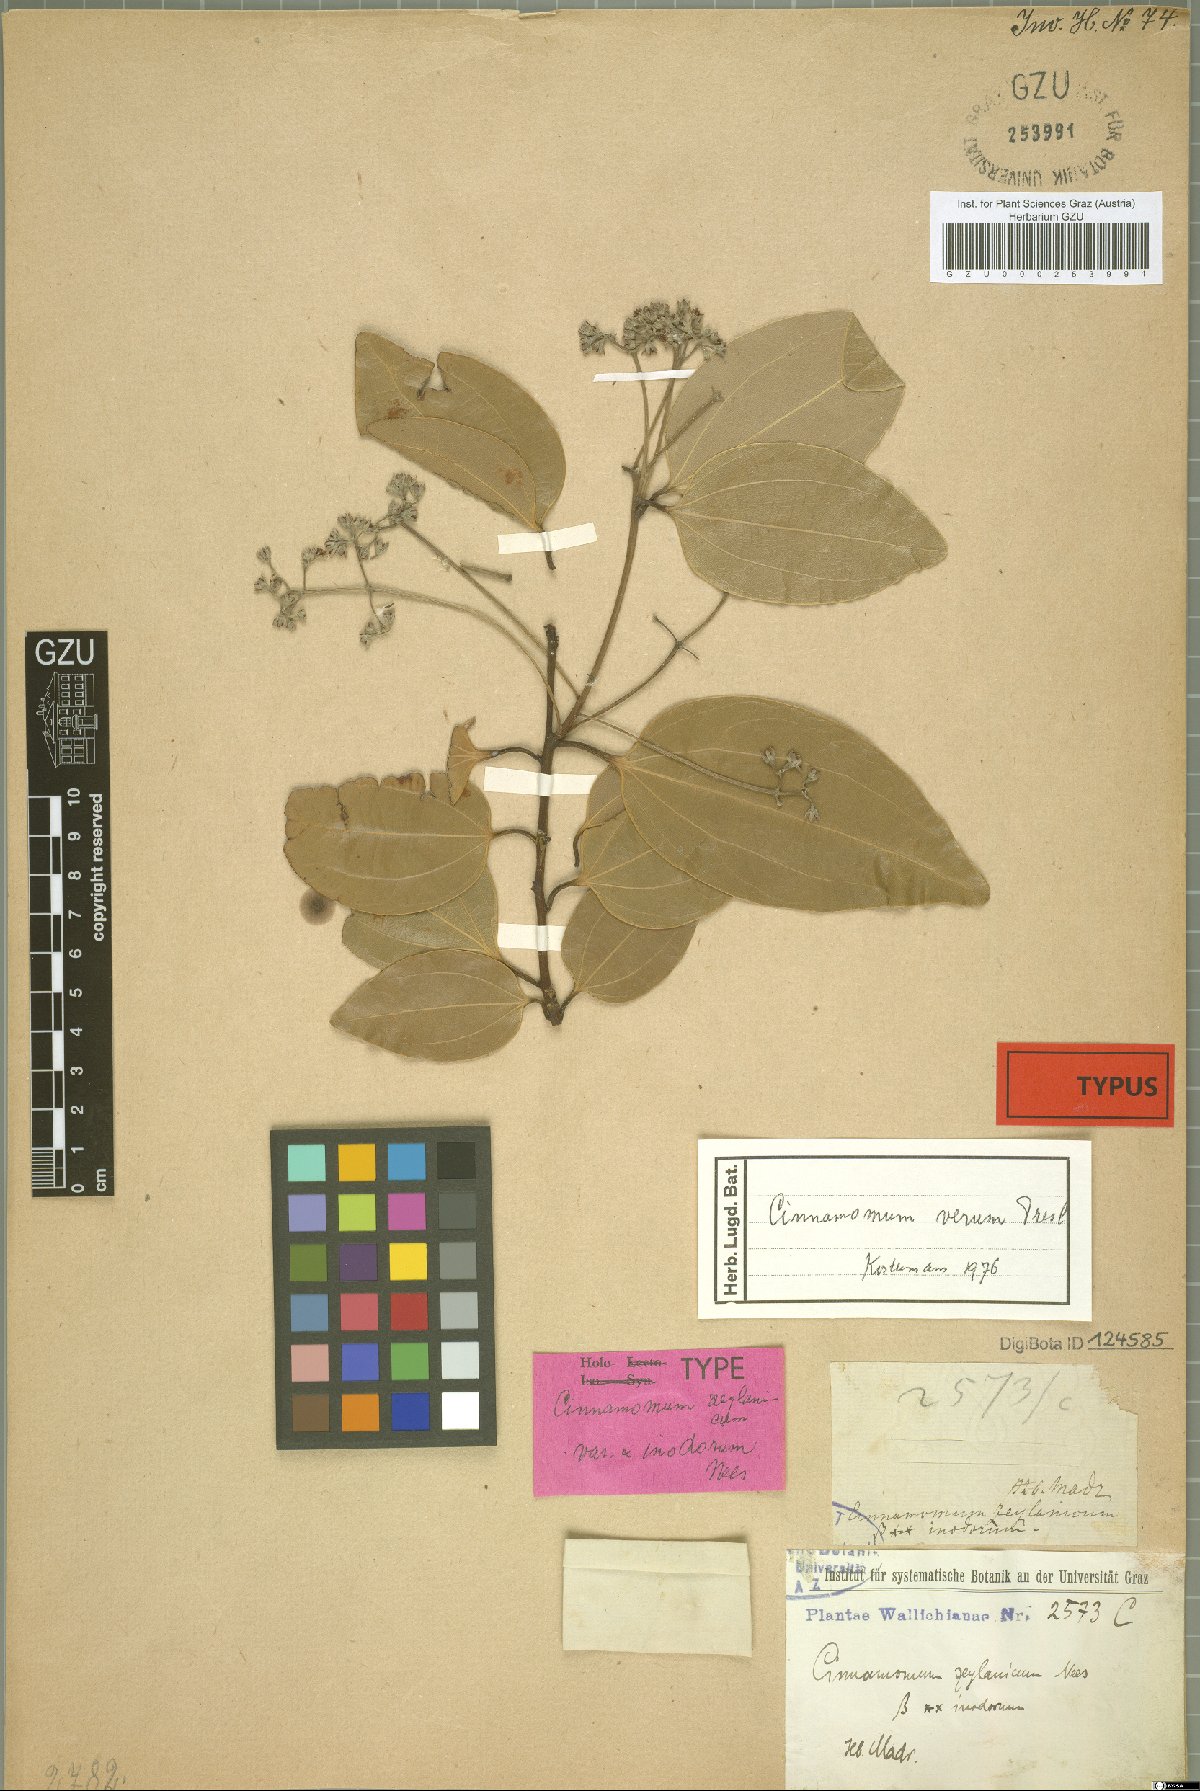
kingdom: Plantae
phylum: Tracheophyta
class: Magnoliopsida
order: Laurales
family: Lauraceae
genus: Cinnamomum
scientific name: Cinnamomum verum
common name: Cinnamon
